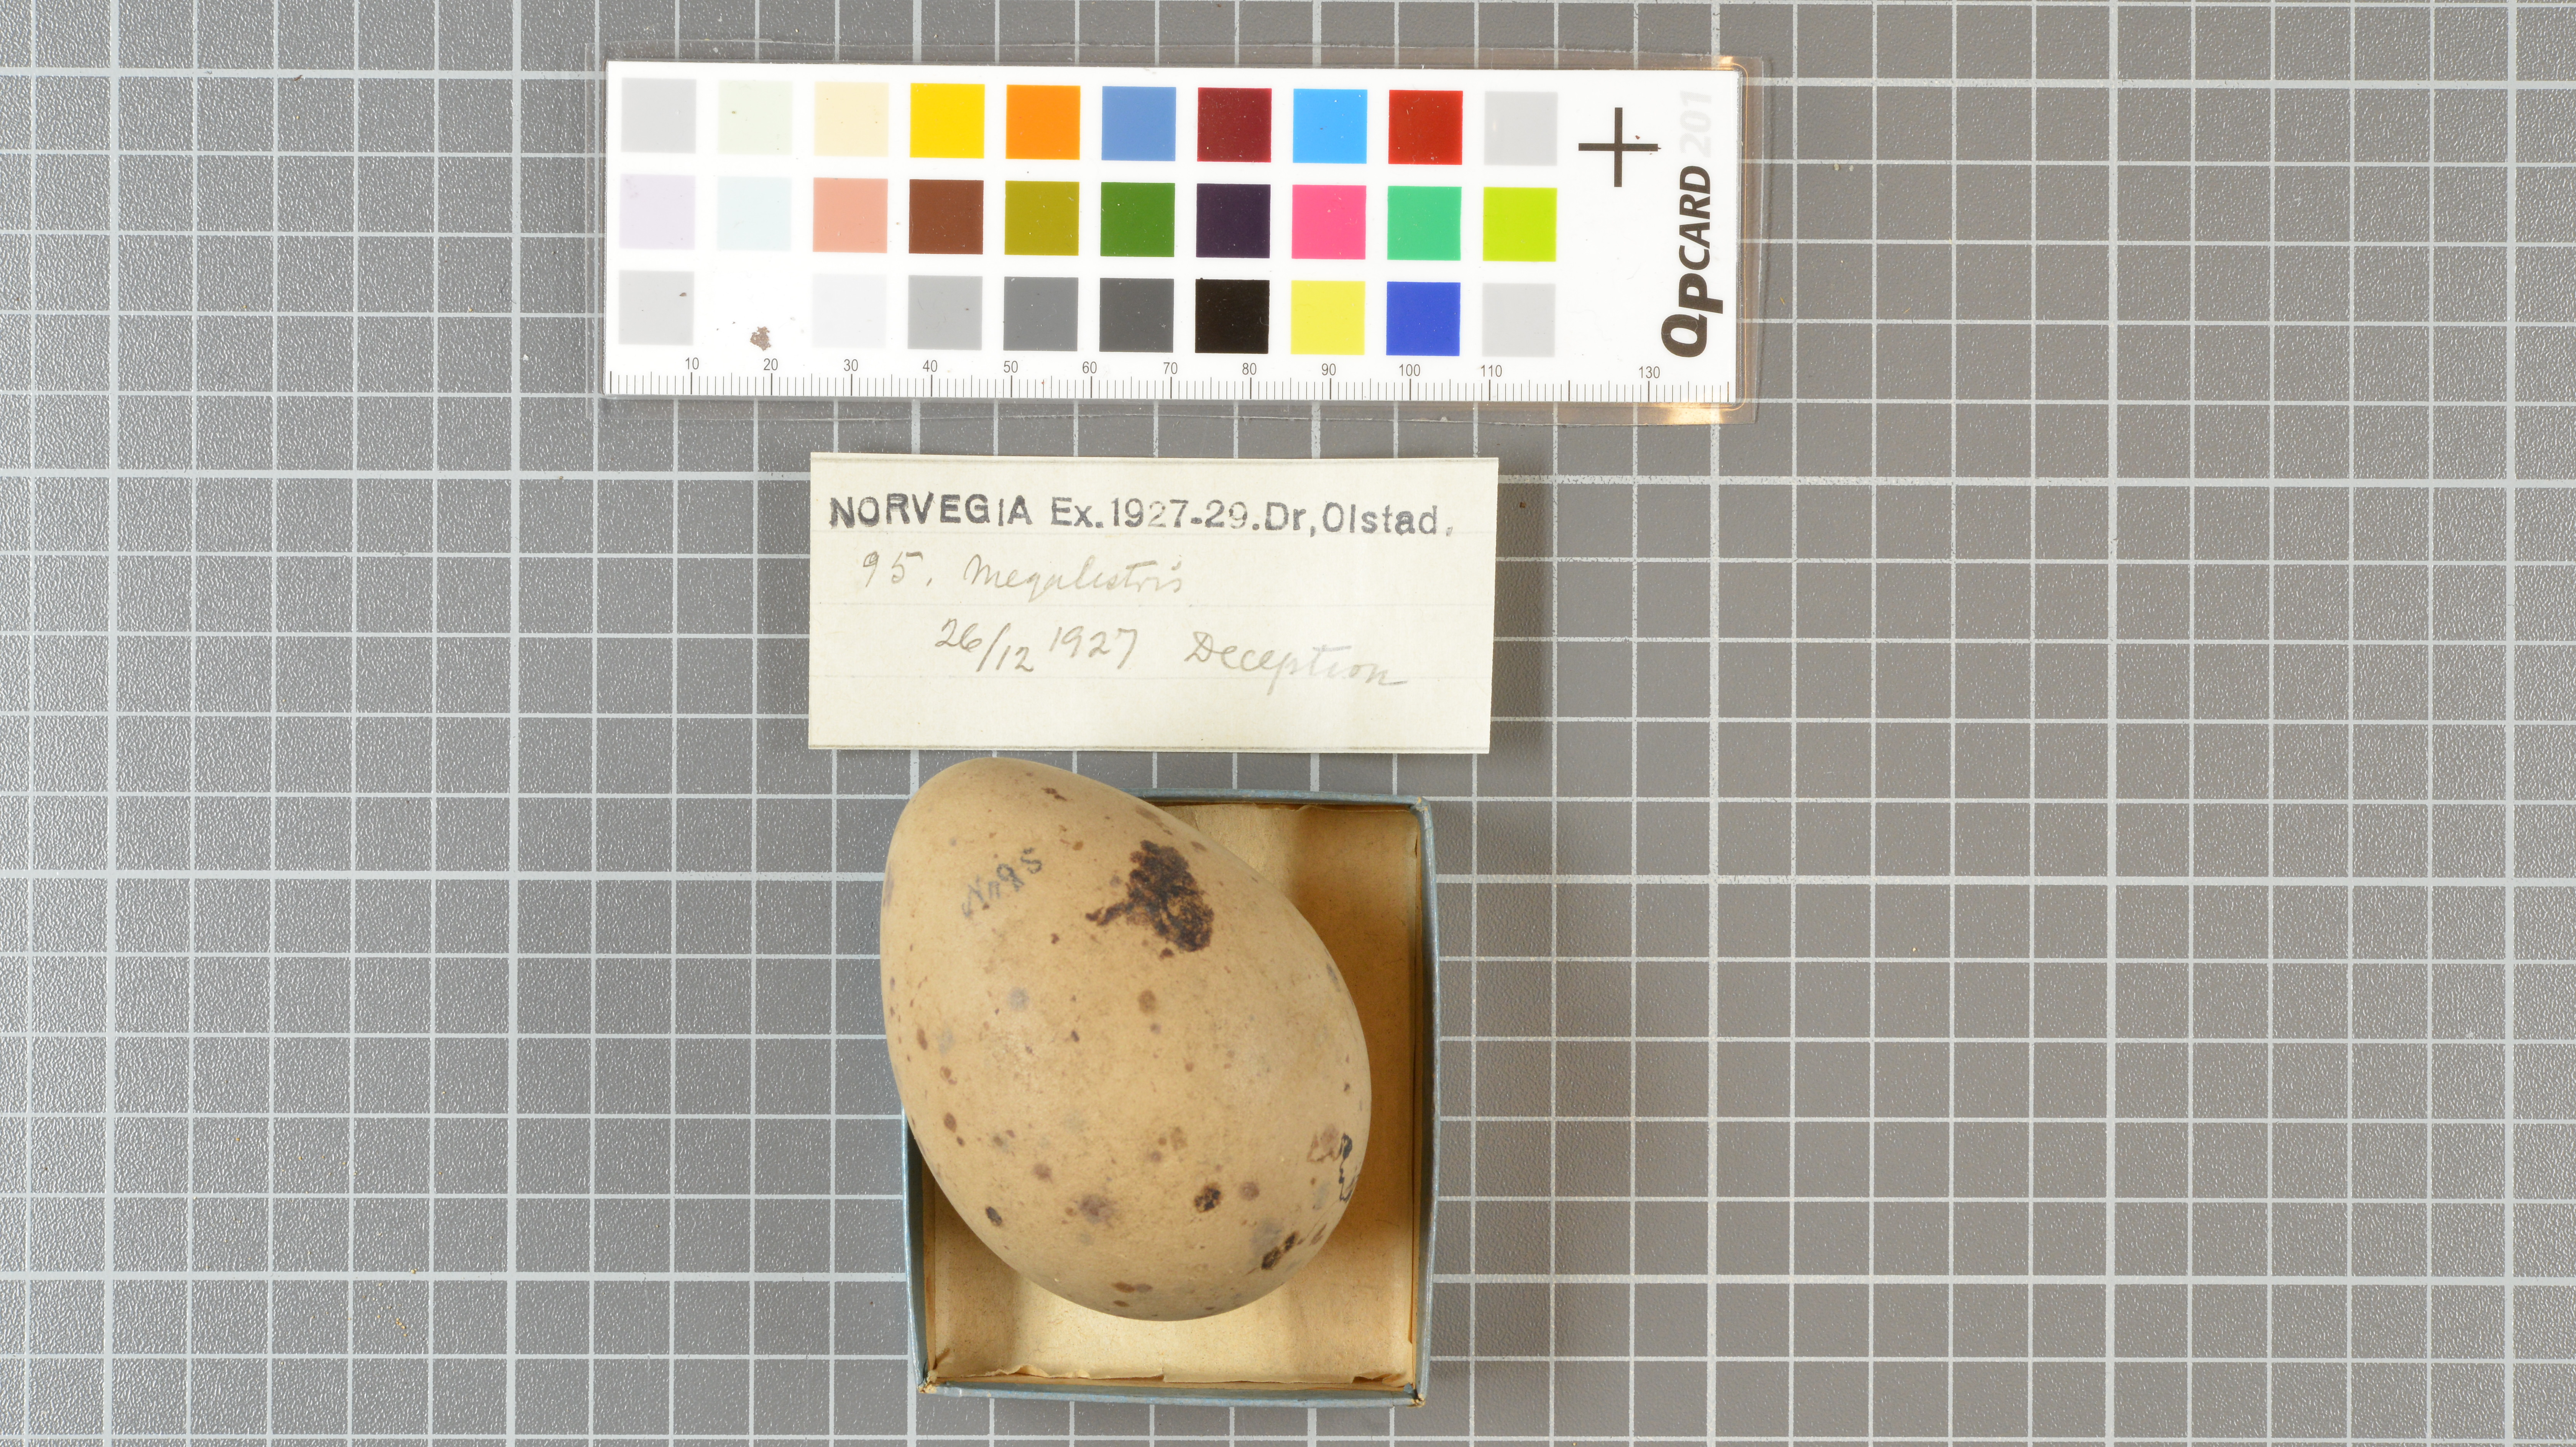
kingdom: Animalia
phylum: Chordata
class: Aves
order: Charadriiformes
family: Stercorariidae
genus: Stercorarius
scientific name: Stercorarius
